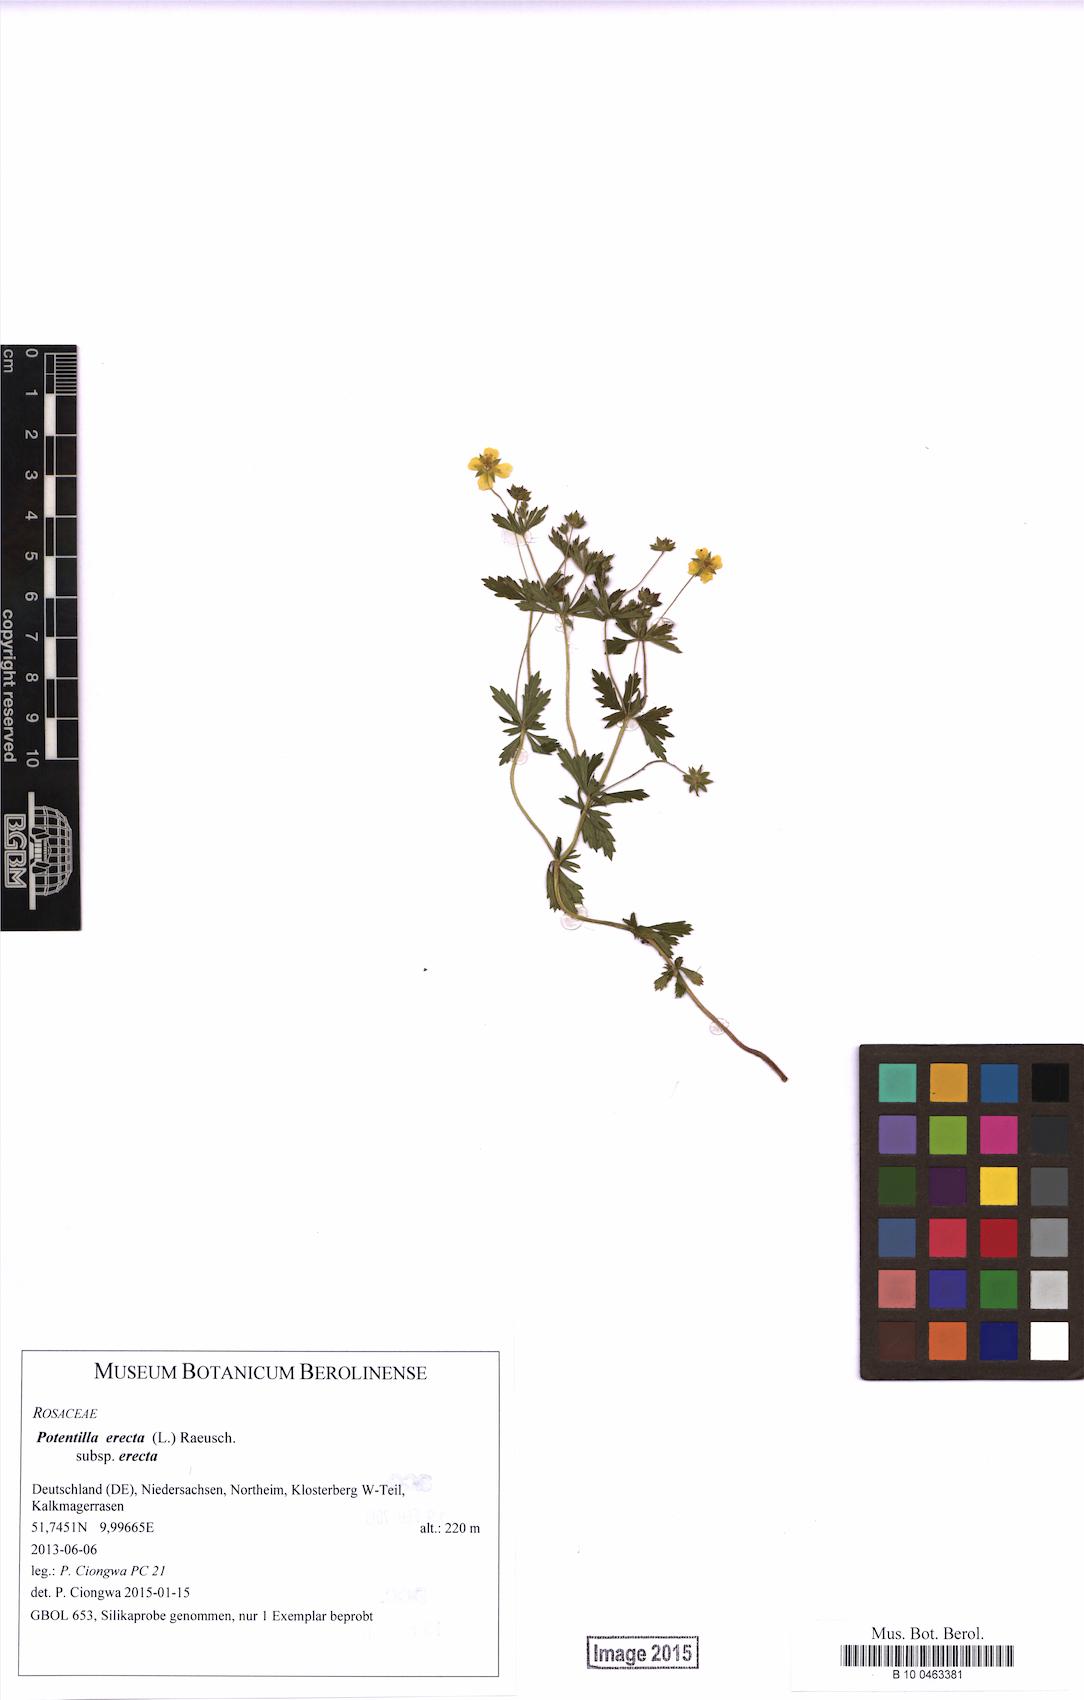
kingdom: Plantae
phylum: Tracheophyta
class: Magnoliopsida
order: Rosales
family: Rosaceae
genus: Potentilla
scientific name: Potentilla erecta
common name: Tormentil
